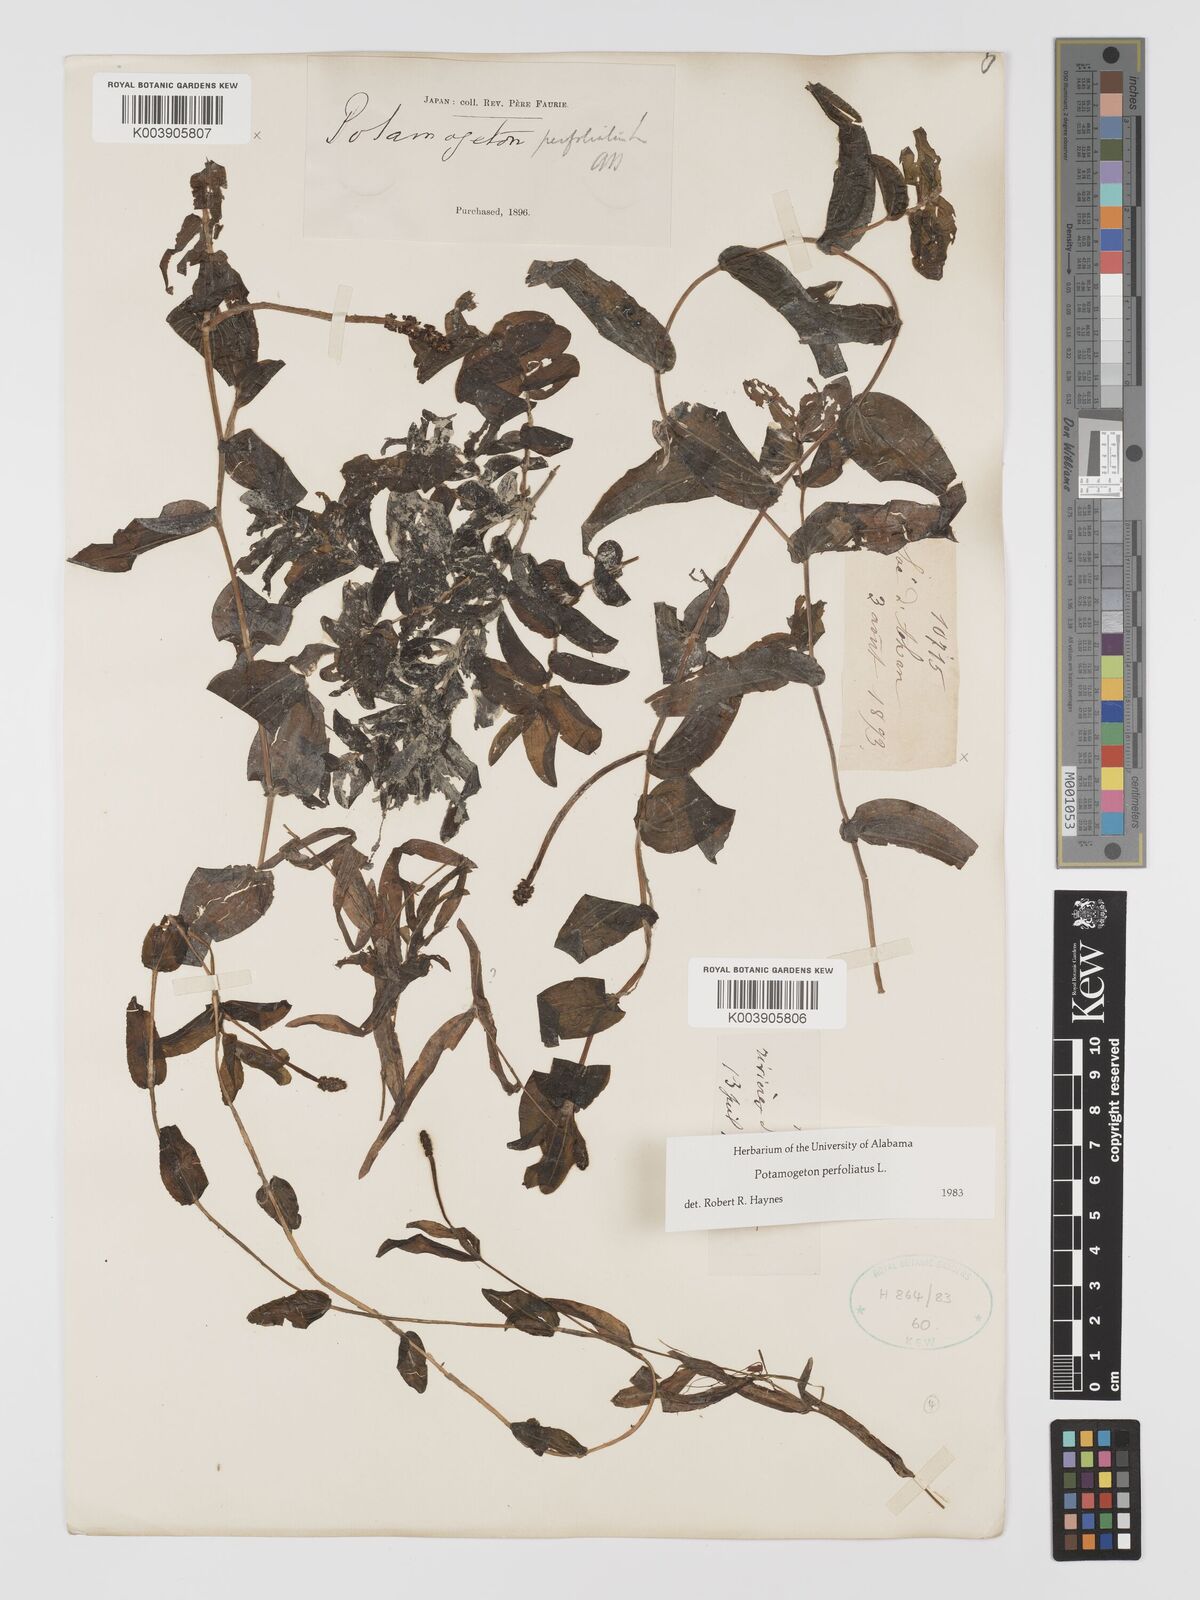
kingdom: Plantae
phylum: Tracheophyta
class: Liliopsida
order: Alismatales
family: Potamogetonaceae
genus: Potamogeton
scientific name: Potamogeton perfoliatus
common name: Perfoliate pondweed
